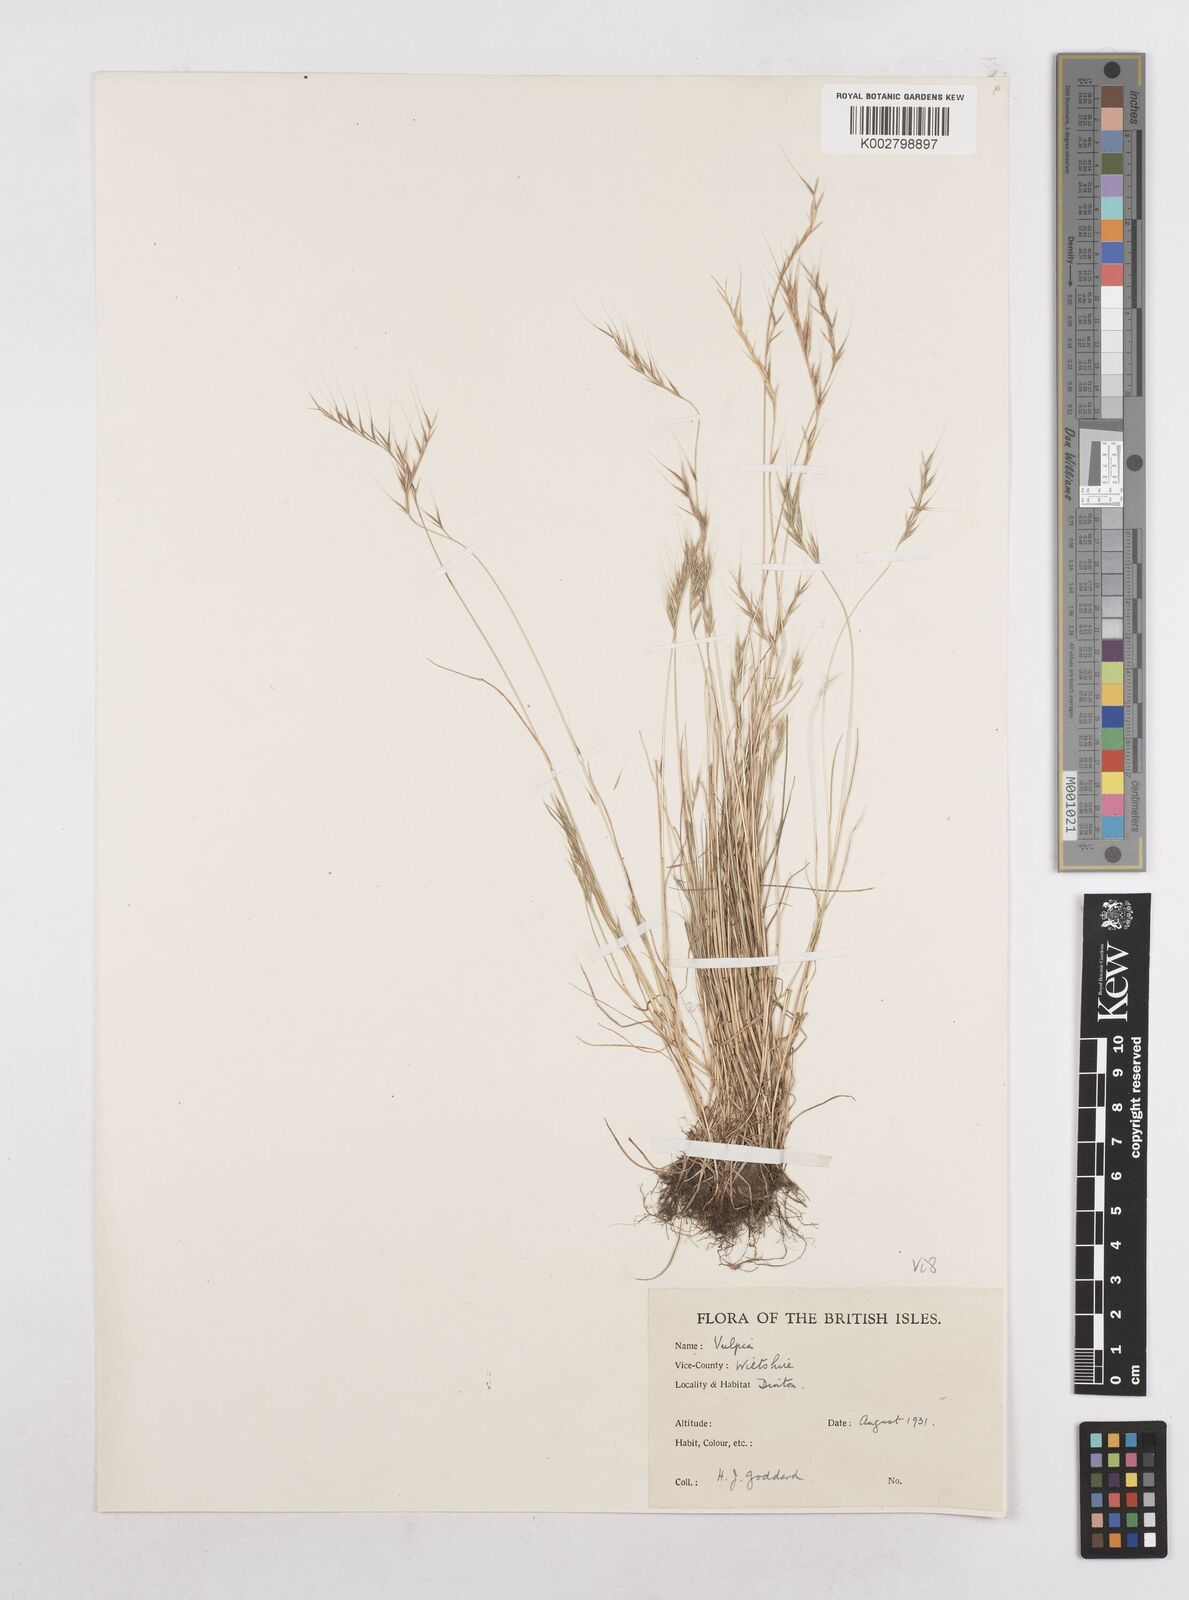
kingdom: Plantae
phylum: Tracheophyta
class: Liliopsida
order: Poales
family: Poaceae
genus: Festuca
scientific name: Festuca bromoides
